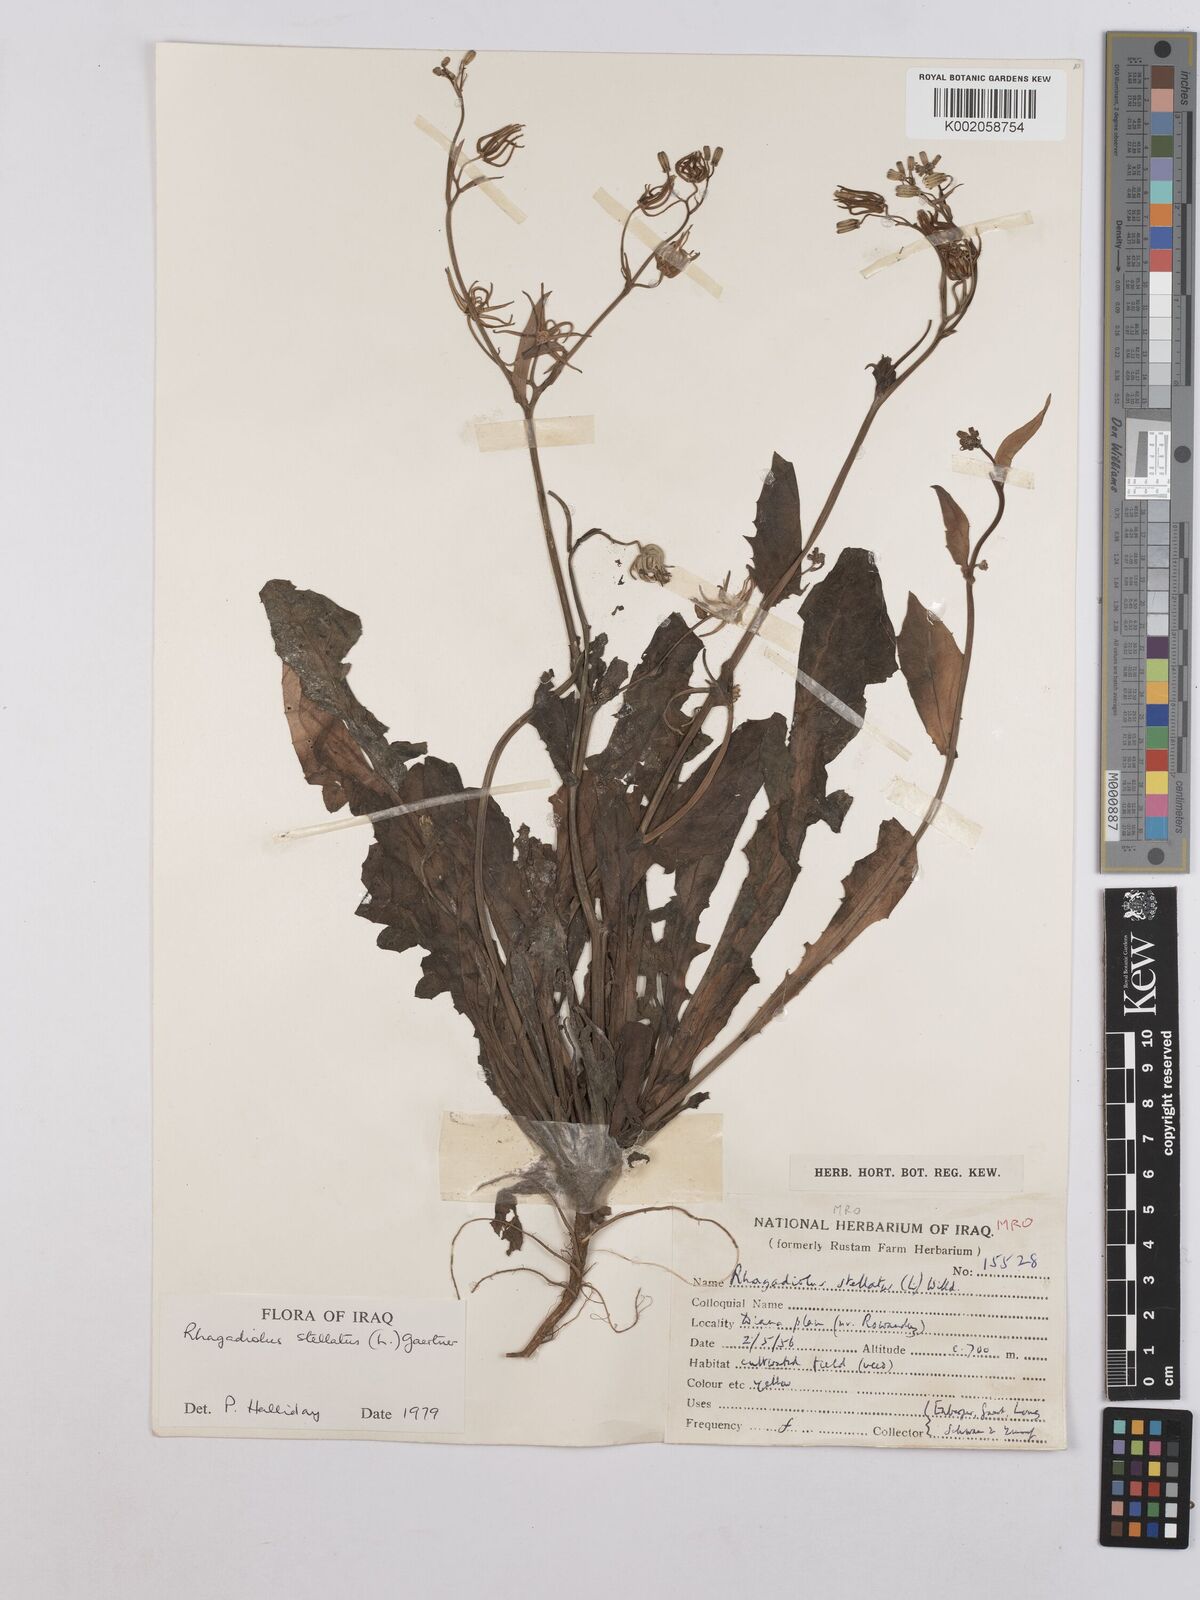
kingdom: Plantae
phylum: Tracheophyta
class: Magnoliopsida
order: Asterales
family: Asteraceae
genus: Rhagadiolus
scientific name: Rhagadiolus stellatus
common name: Star hawkbit
